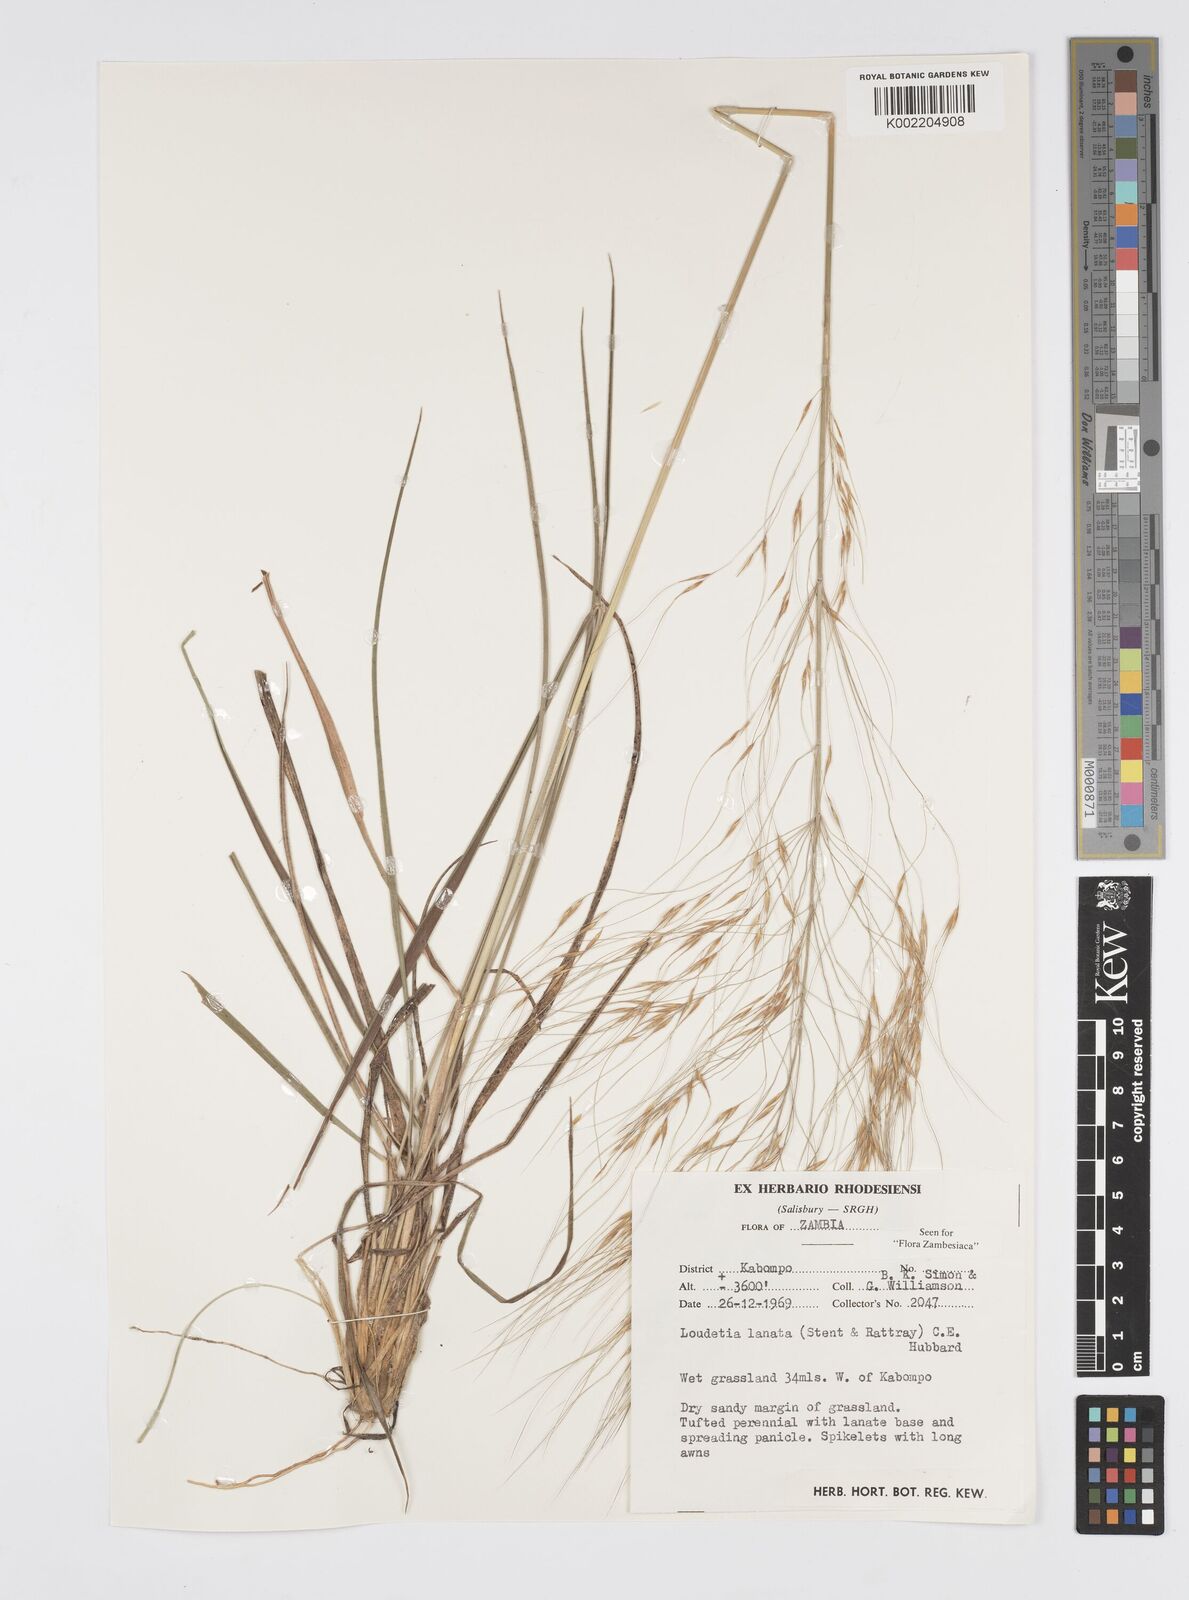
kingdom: Plantae
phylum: Tracheophyta
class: Liliopsida
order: Poales
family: Poaceae
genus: Loudetia
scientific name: Loudetia lanata
